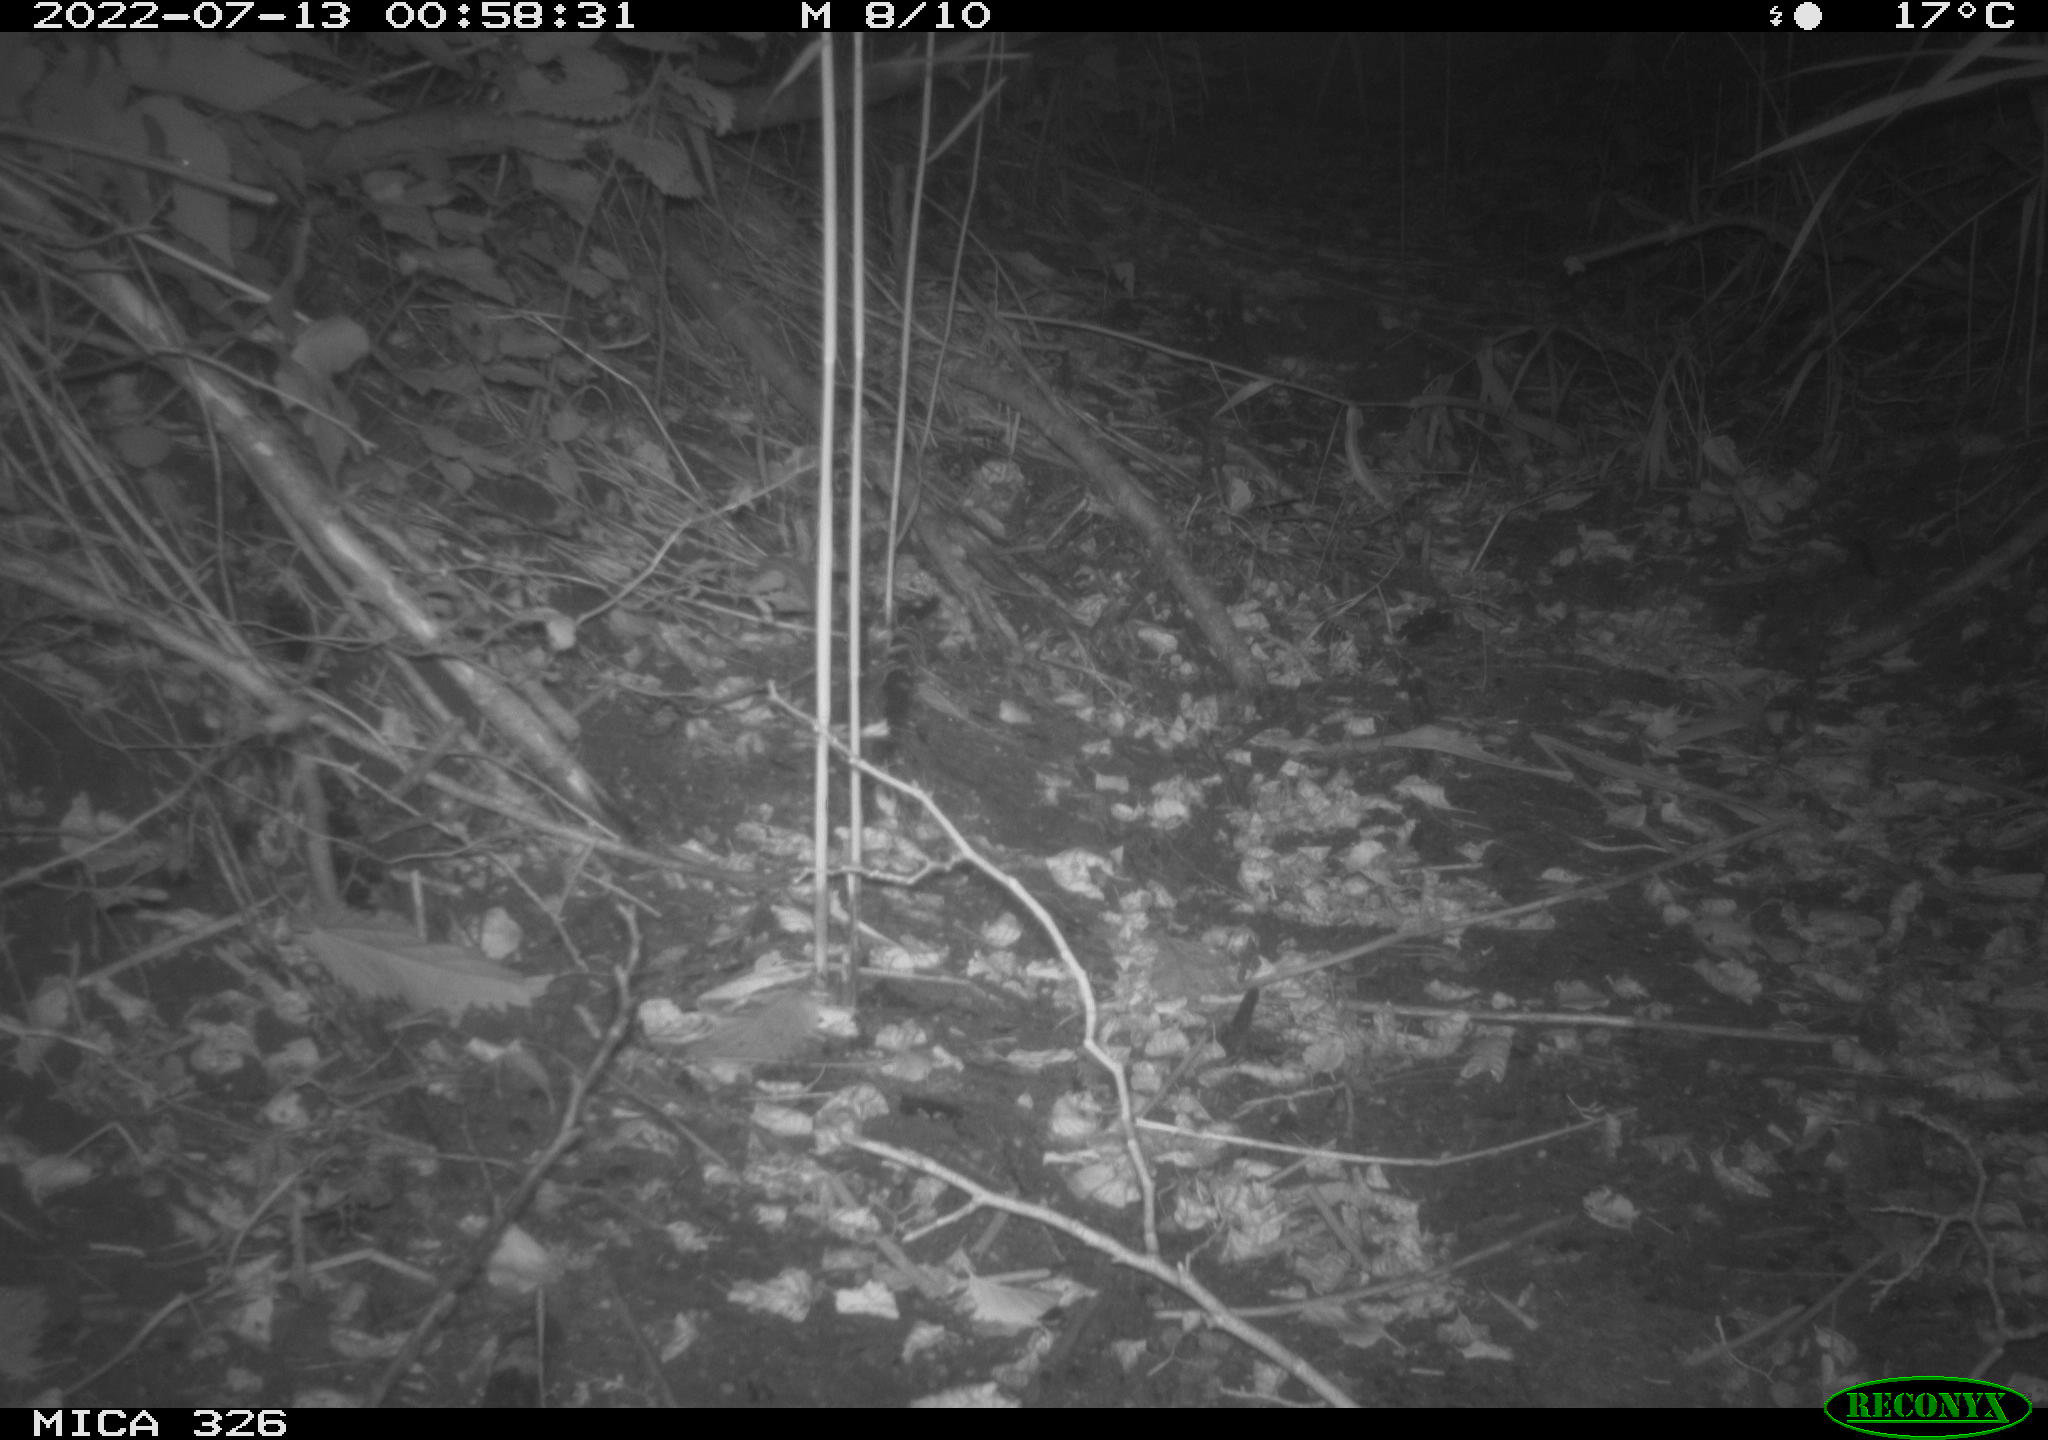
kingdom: Animalia
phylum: Chordata
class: Mammalia
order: Rodentia
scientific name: Rodentia
